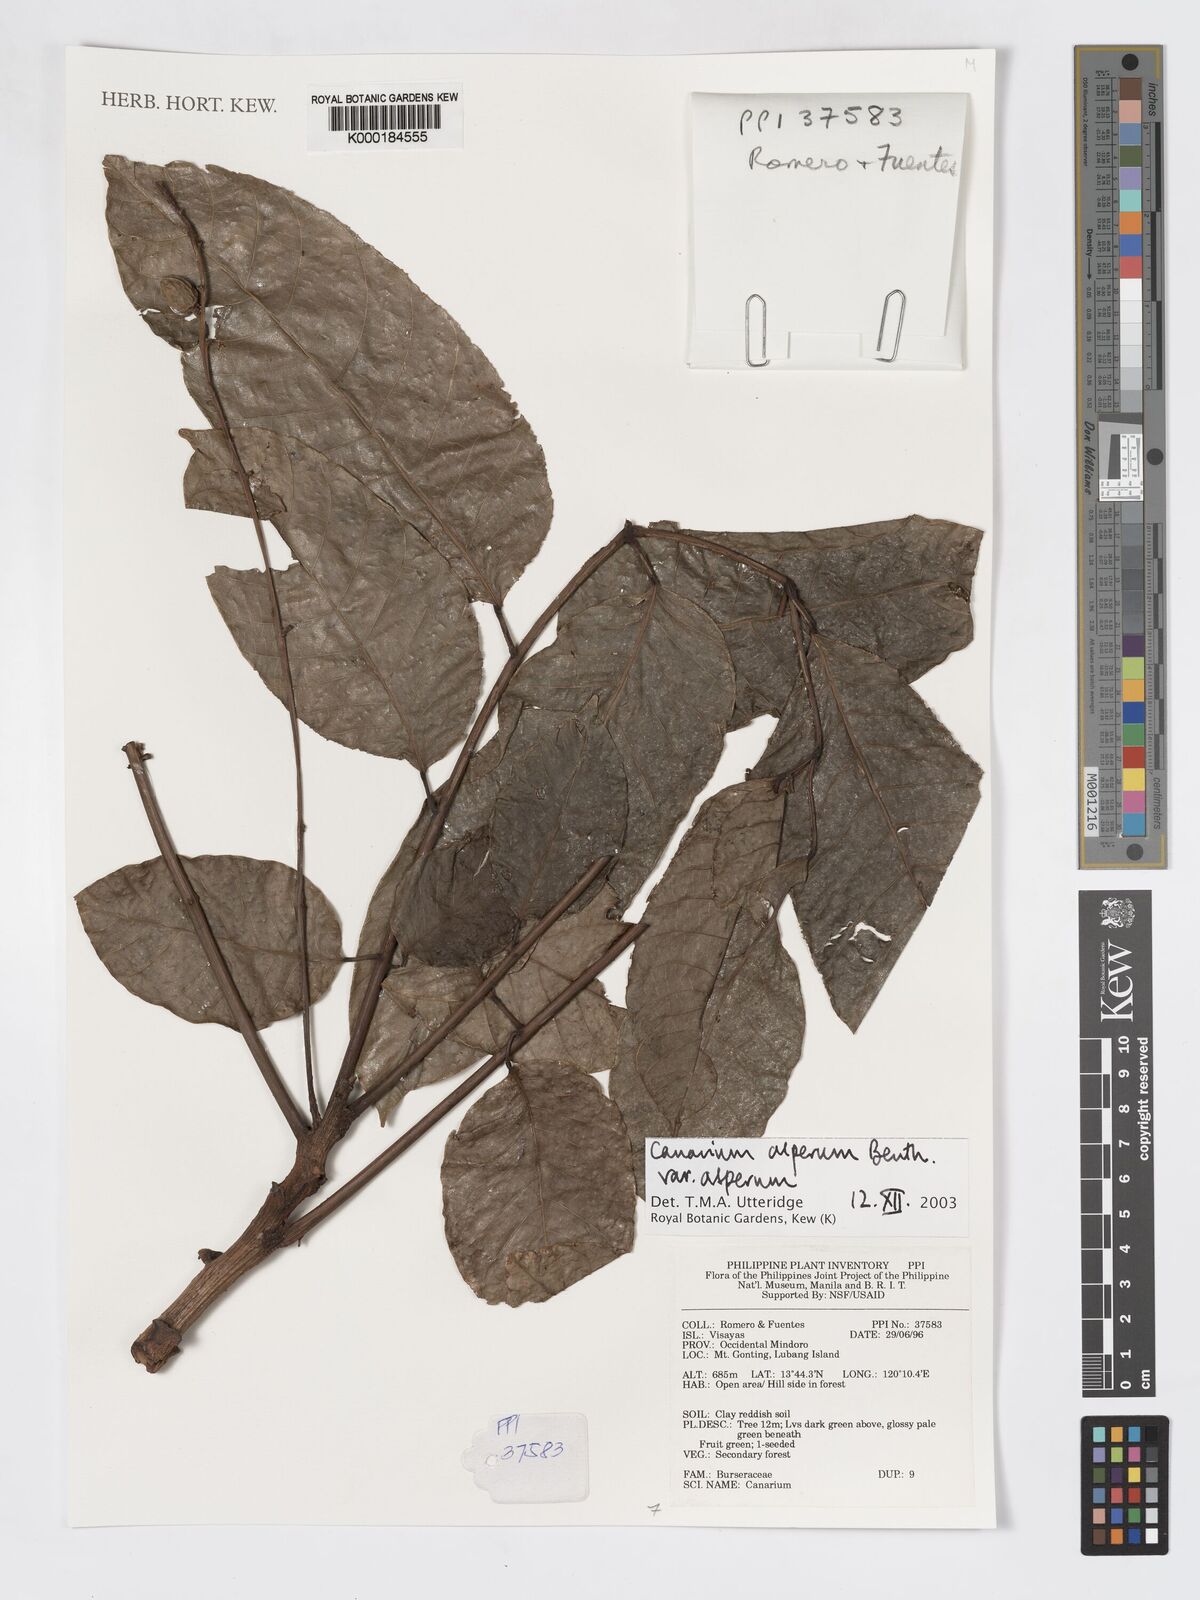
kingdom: Plantae
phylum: Tracheophyta
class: Magnoliopsida
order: Sapindales
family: Burseraceae
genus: Canarium
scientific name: Canarium asperum
